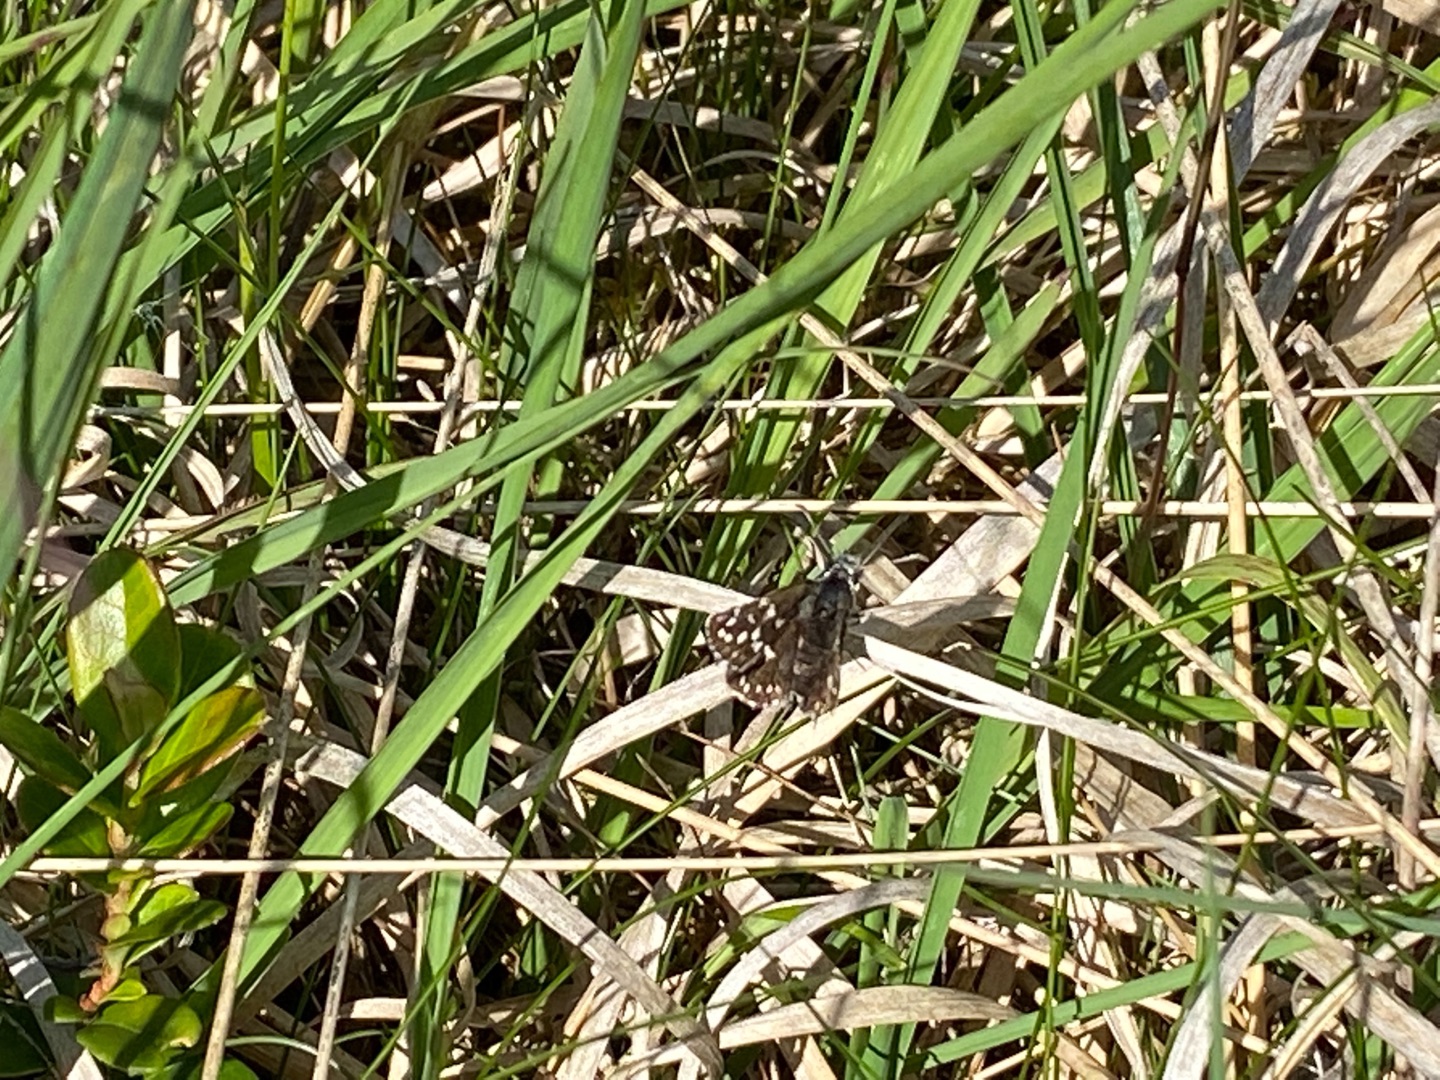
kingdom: Animalia
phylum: Arthropoda
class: Insecta
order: Lepidoptera
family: Hesperiidae
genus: Pyrgus
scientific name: Pyrgus malvae
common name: Spættet bredpande
